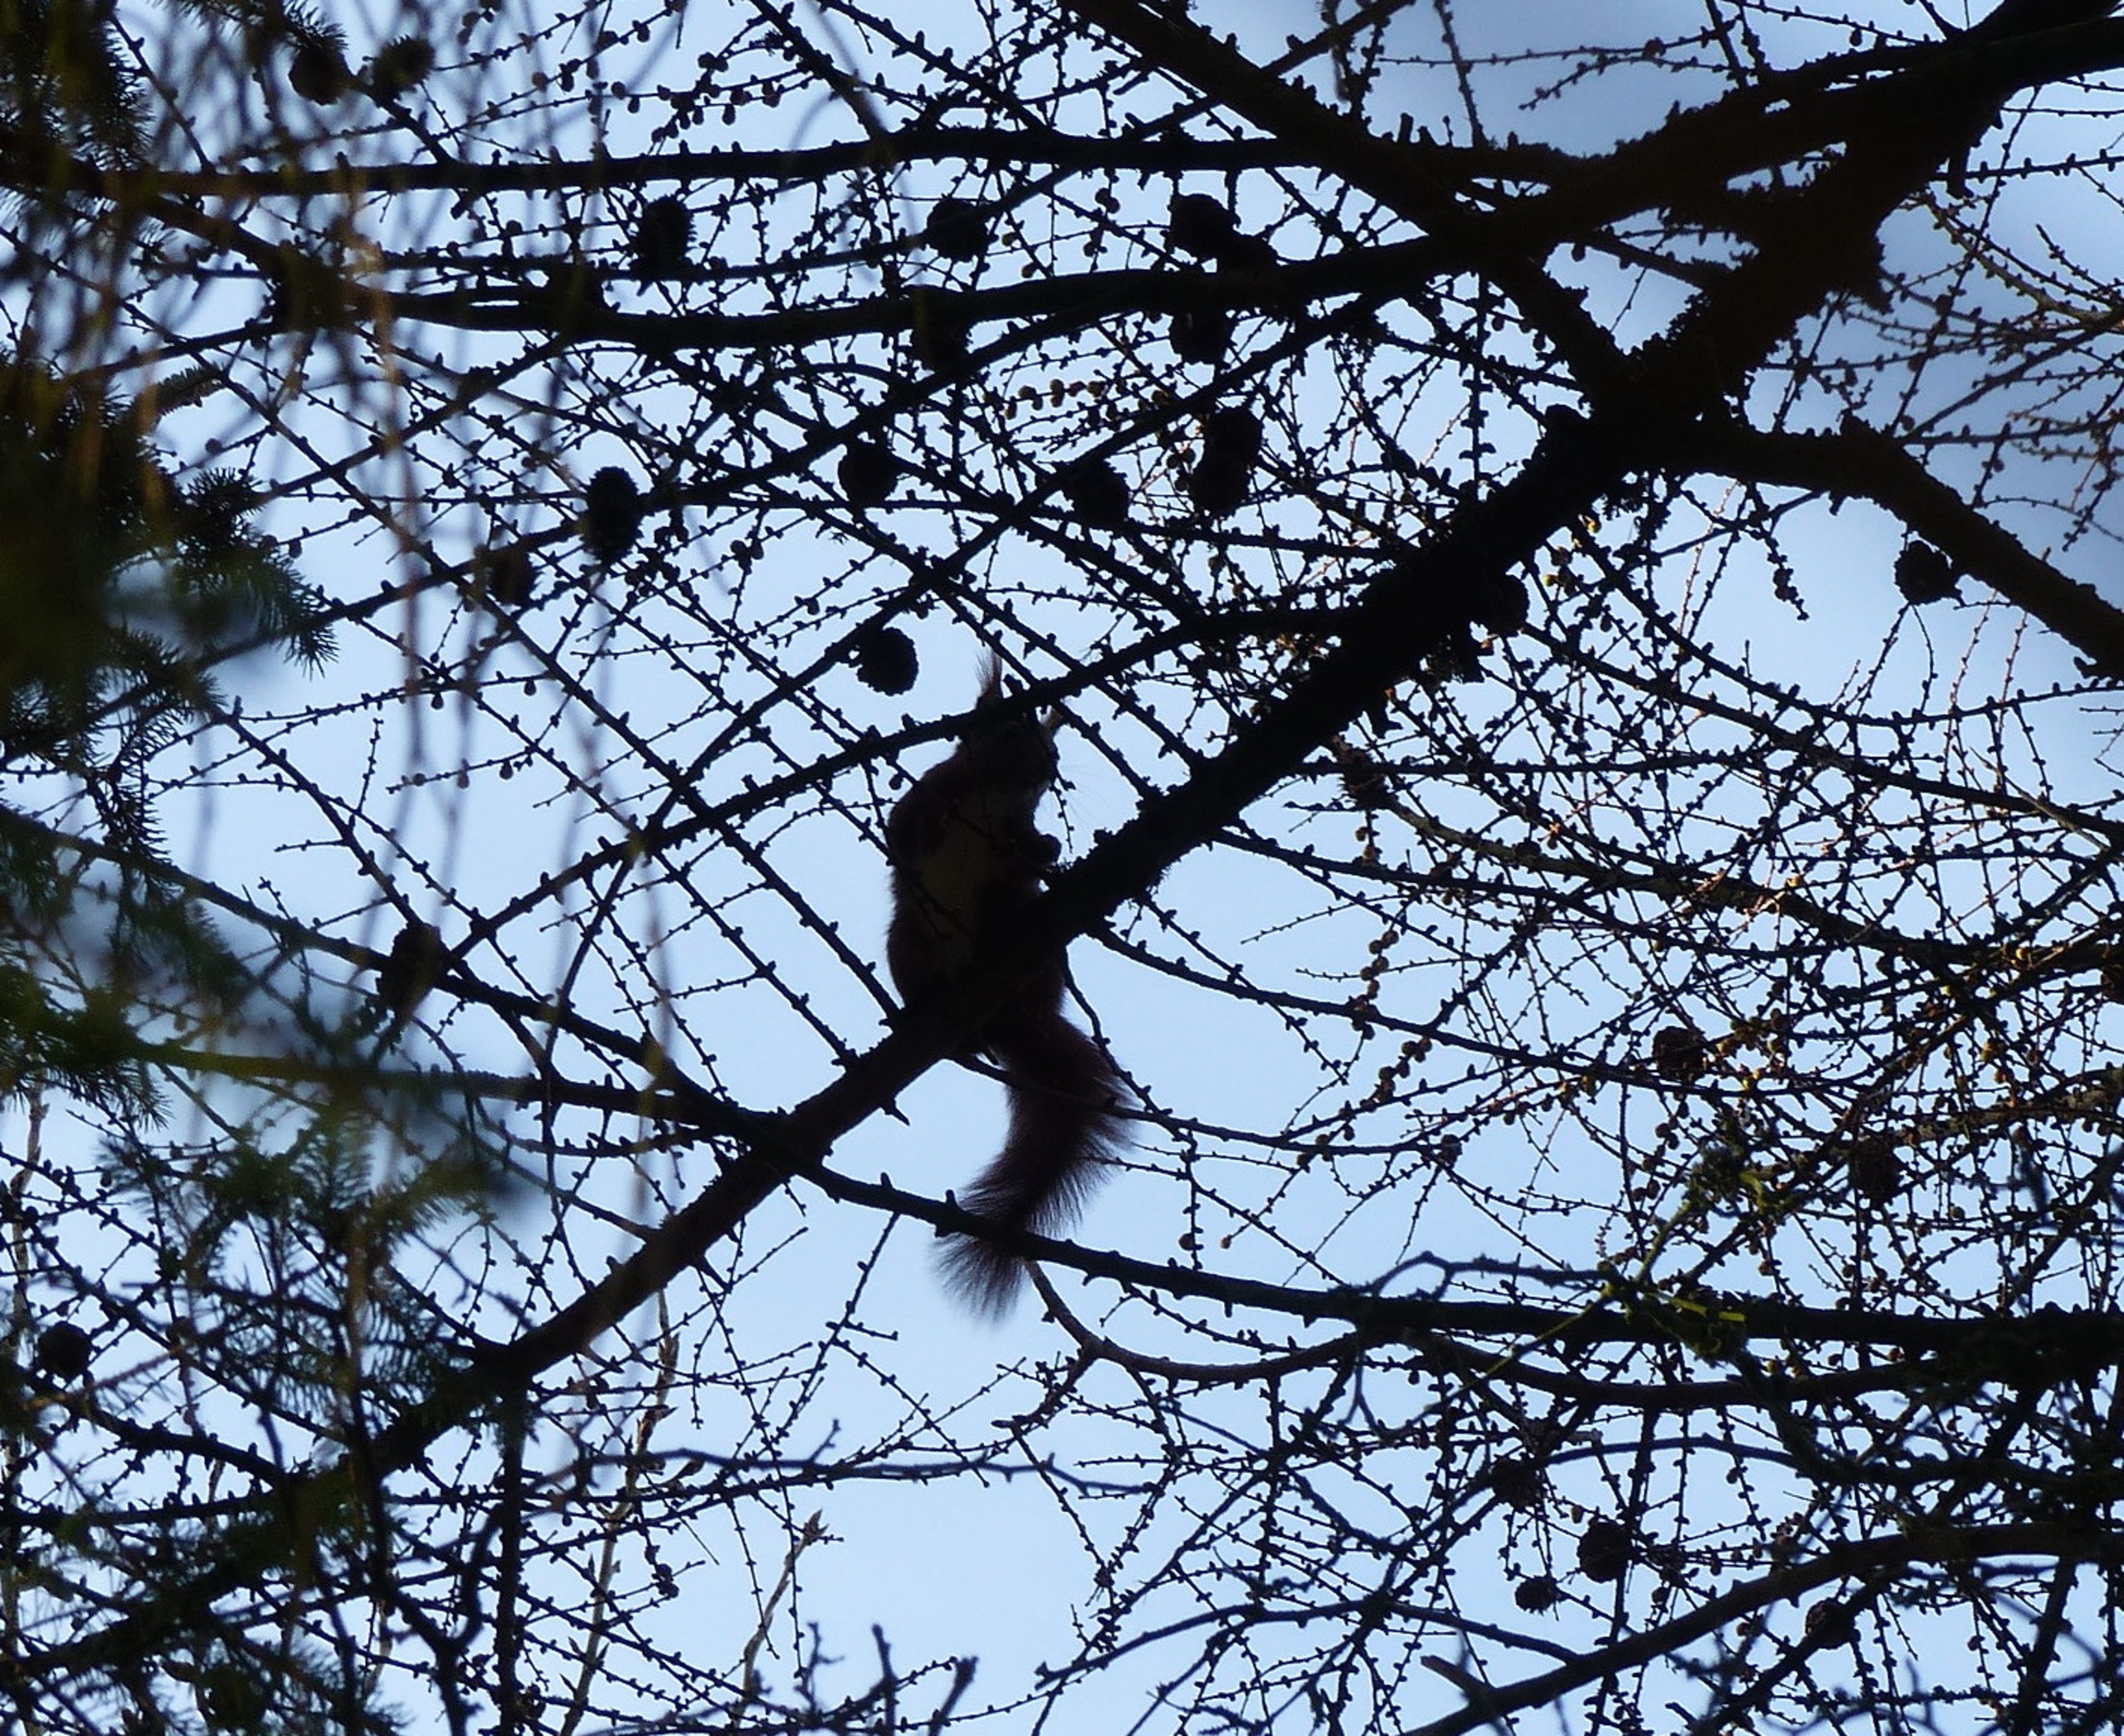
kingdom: Animalia
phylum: Chordata
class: Mammalia
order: Rodentia
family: Sciuridae
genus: Sciurus
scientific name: Sciurus vulgaris
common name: Egern
